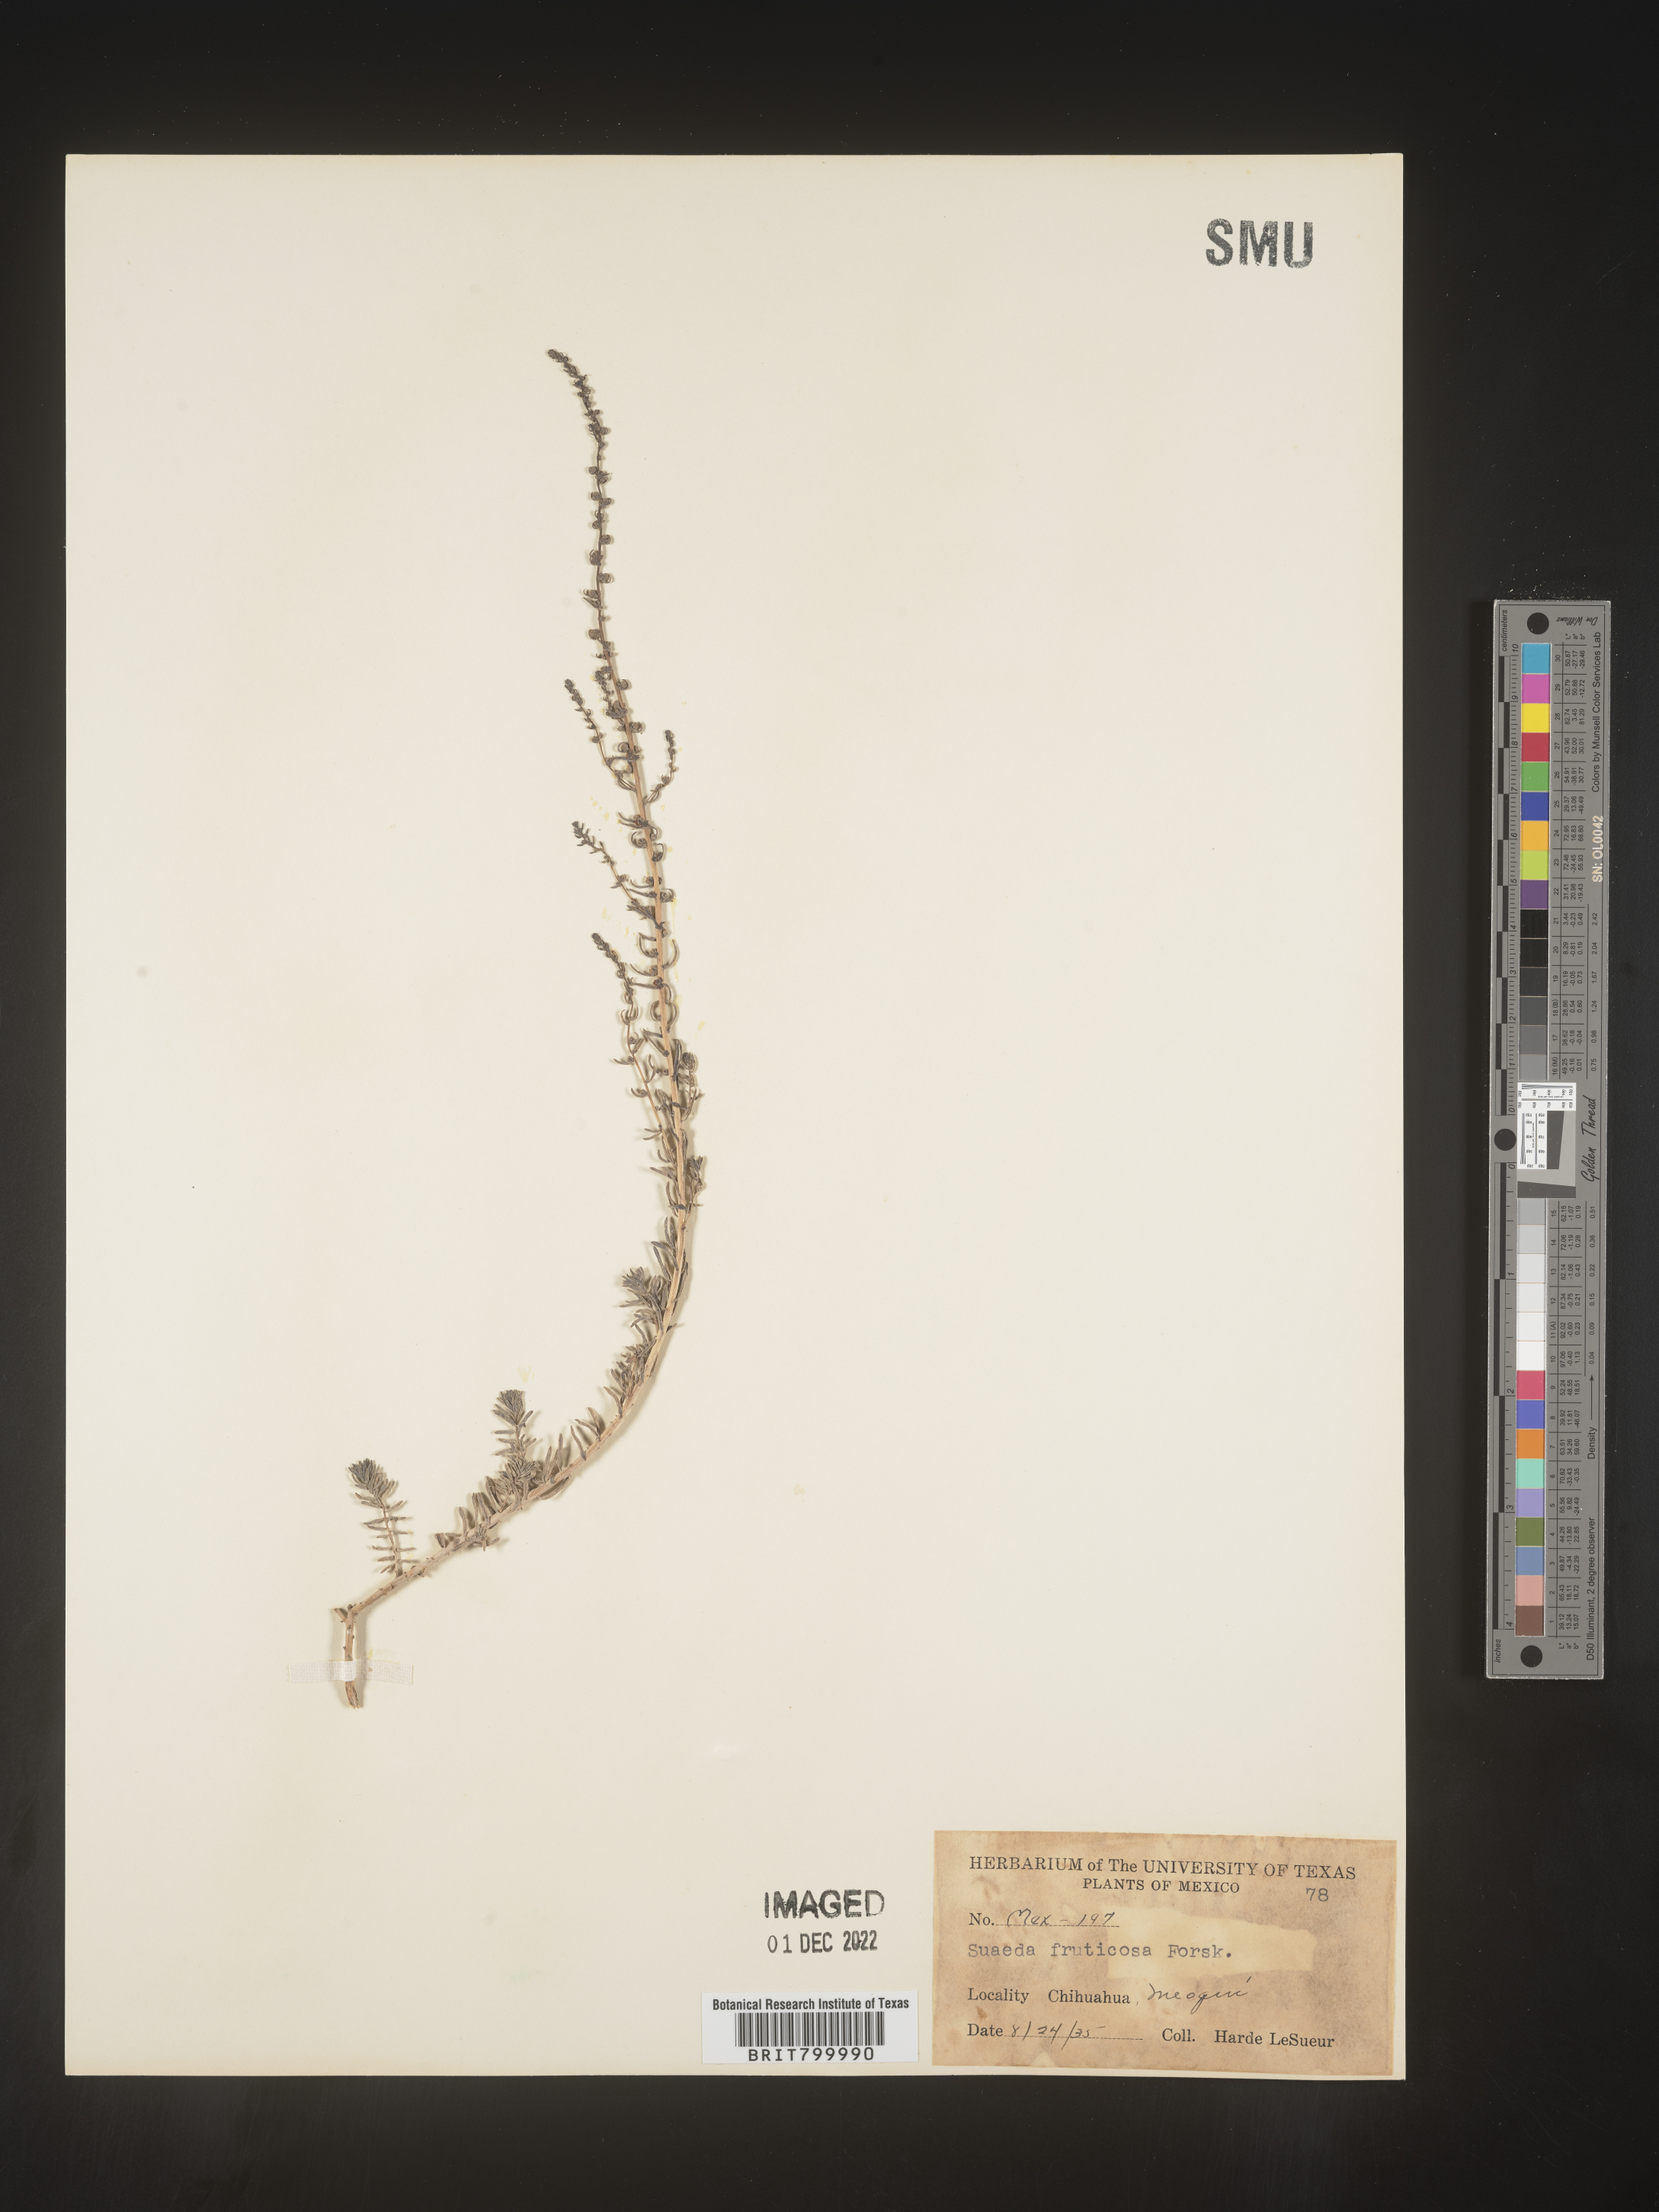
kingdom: Plantae
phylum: Tracheophyta
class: Magnoliopsida
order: Caryophyllales
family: Amaranthaceae
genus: Suaeda
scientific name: Suaeda
